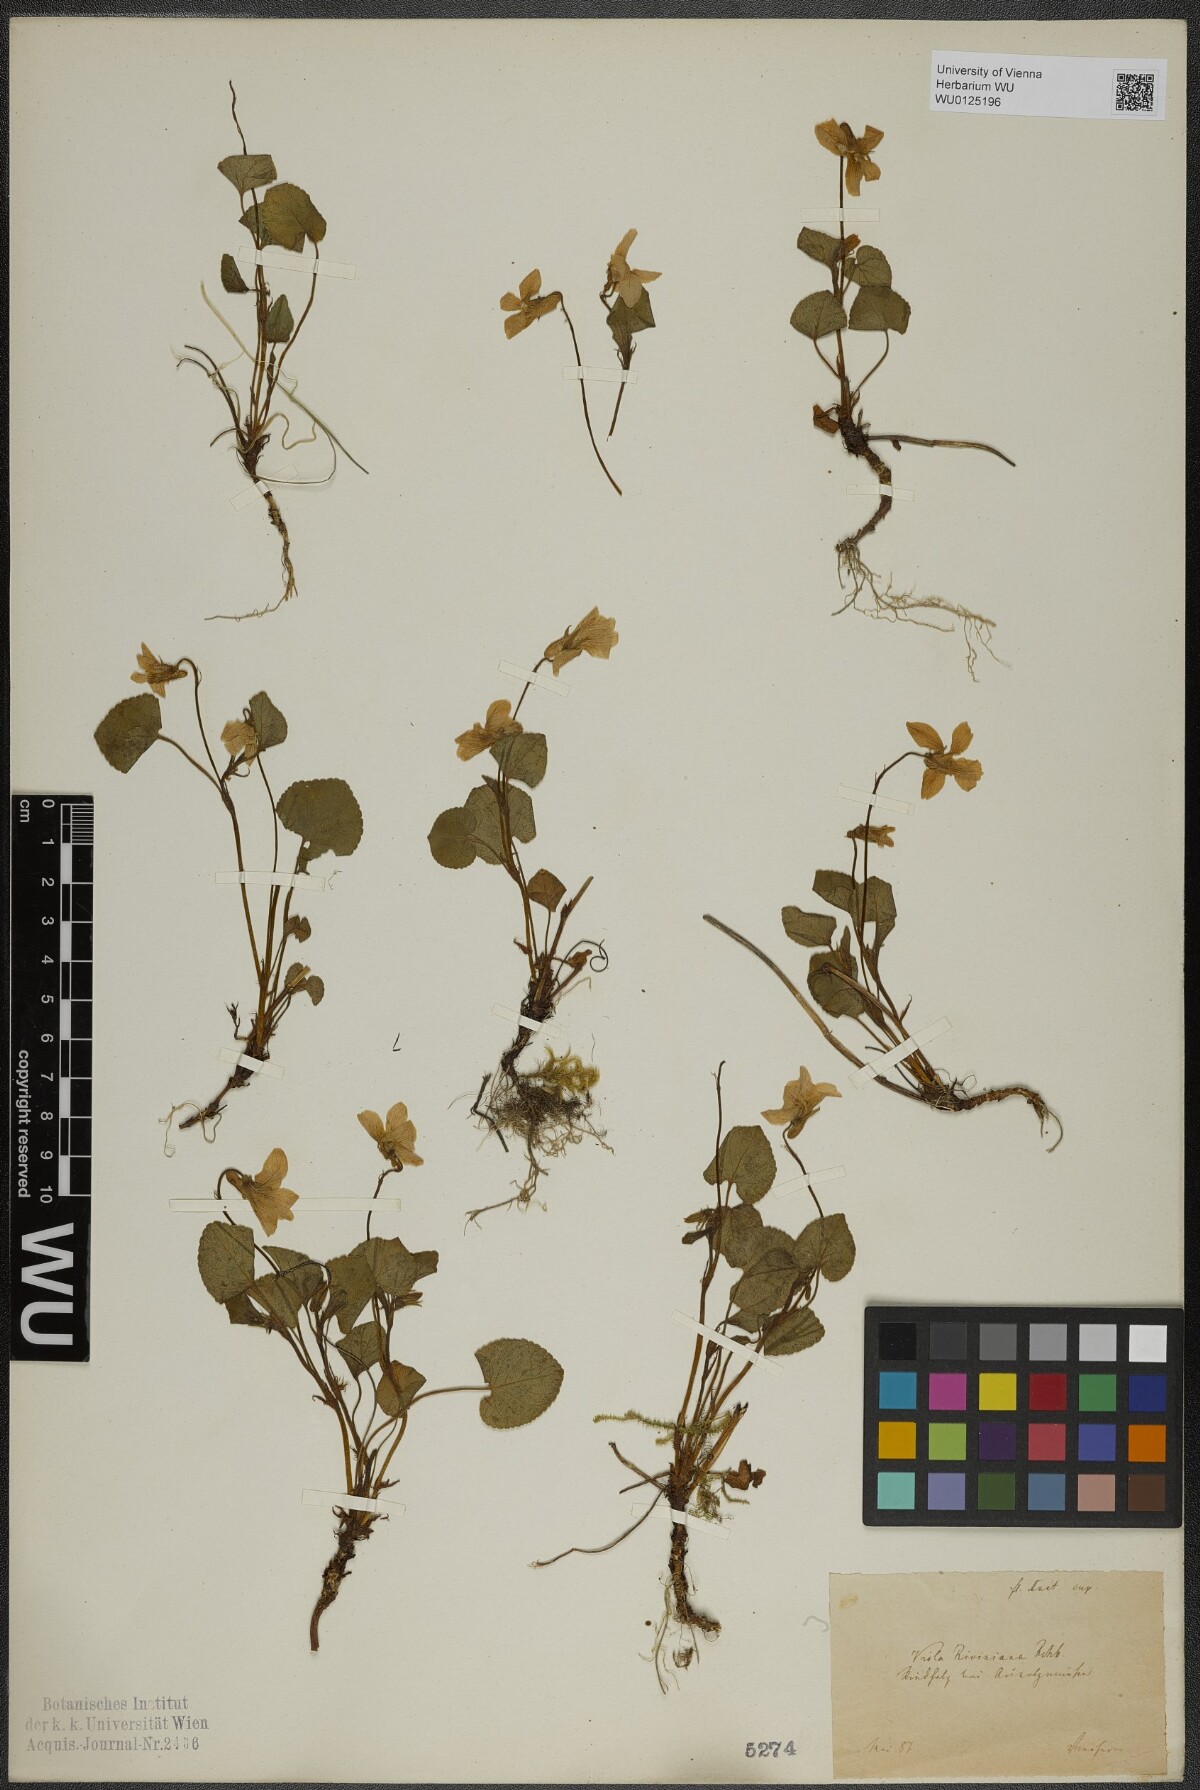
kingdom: Plantae
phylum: Tracheophyta
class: Magnoliopsida
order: Malpighiales
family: Violaceae
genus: Viola
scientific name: Viola riviniana
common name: Common dog-violet
